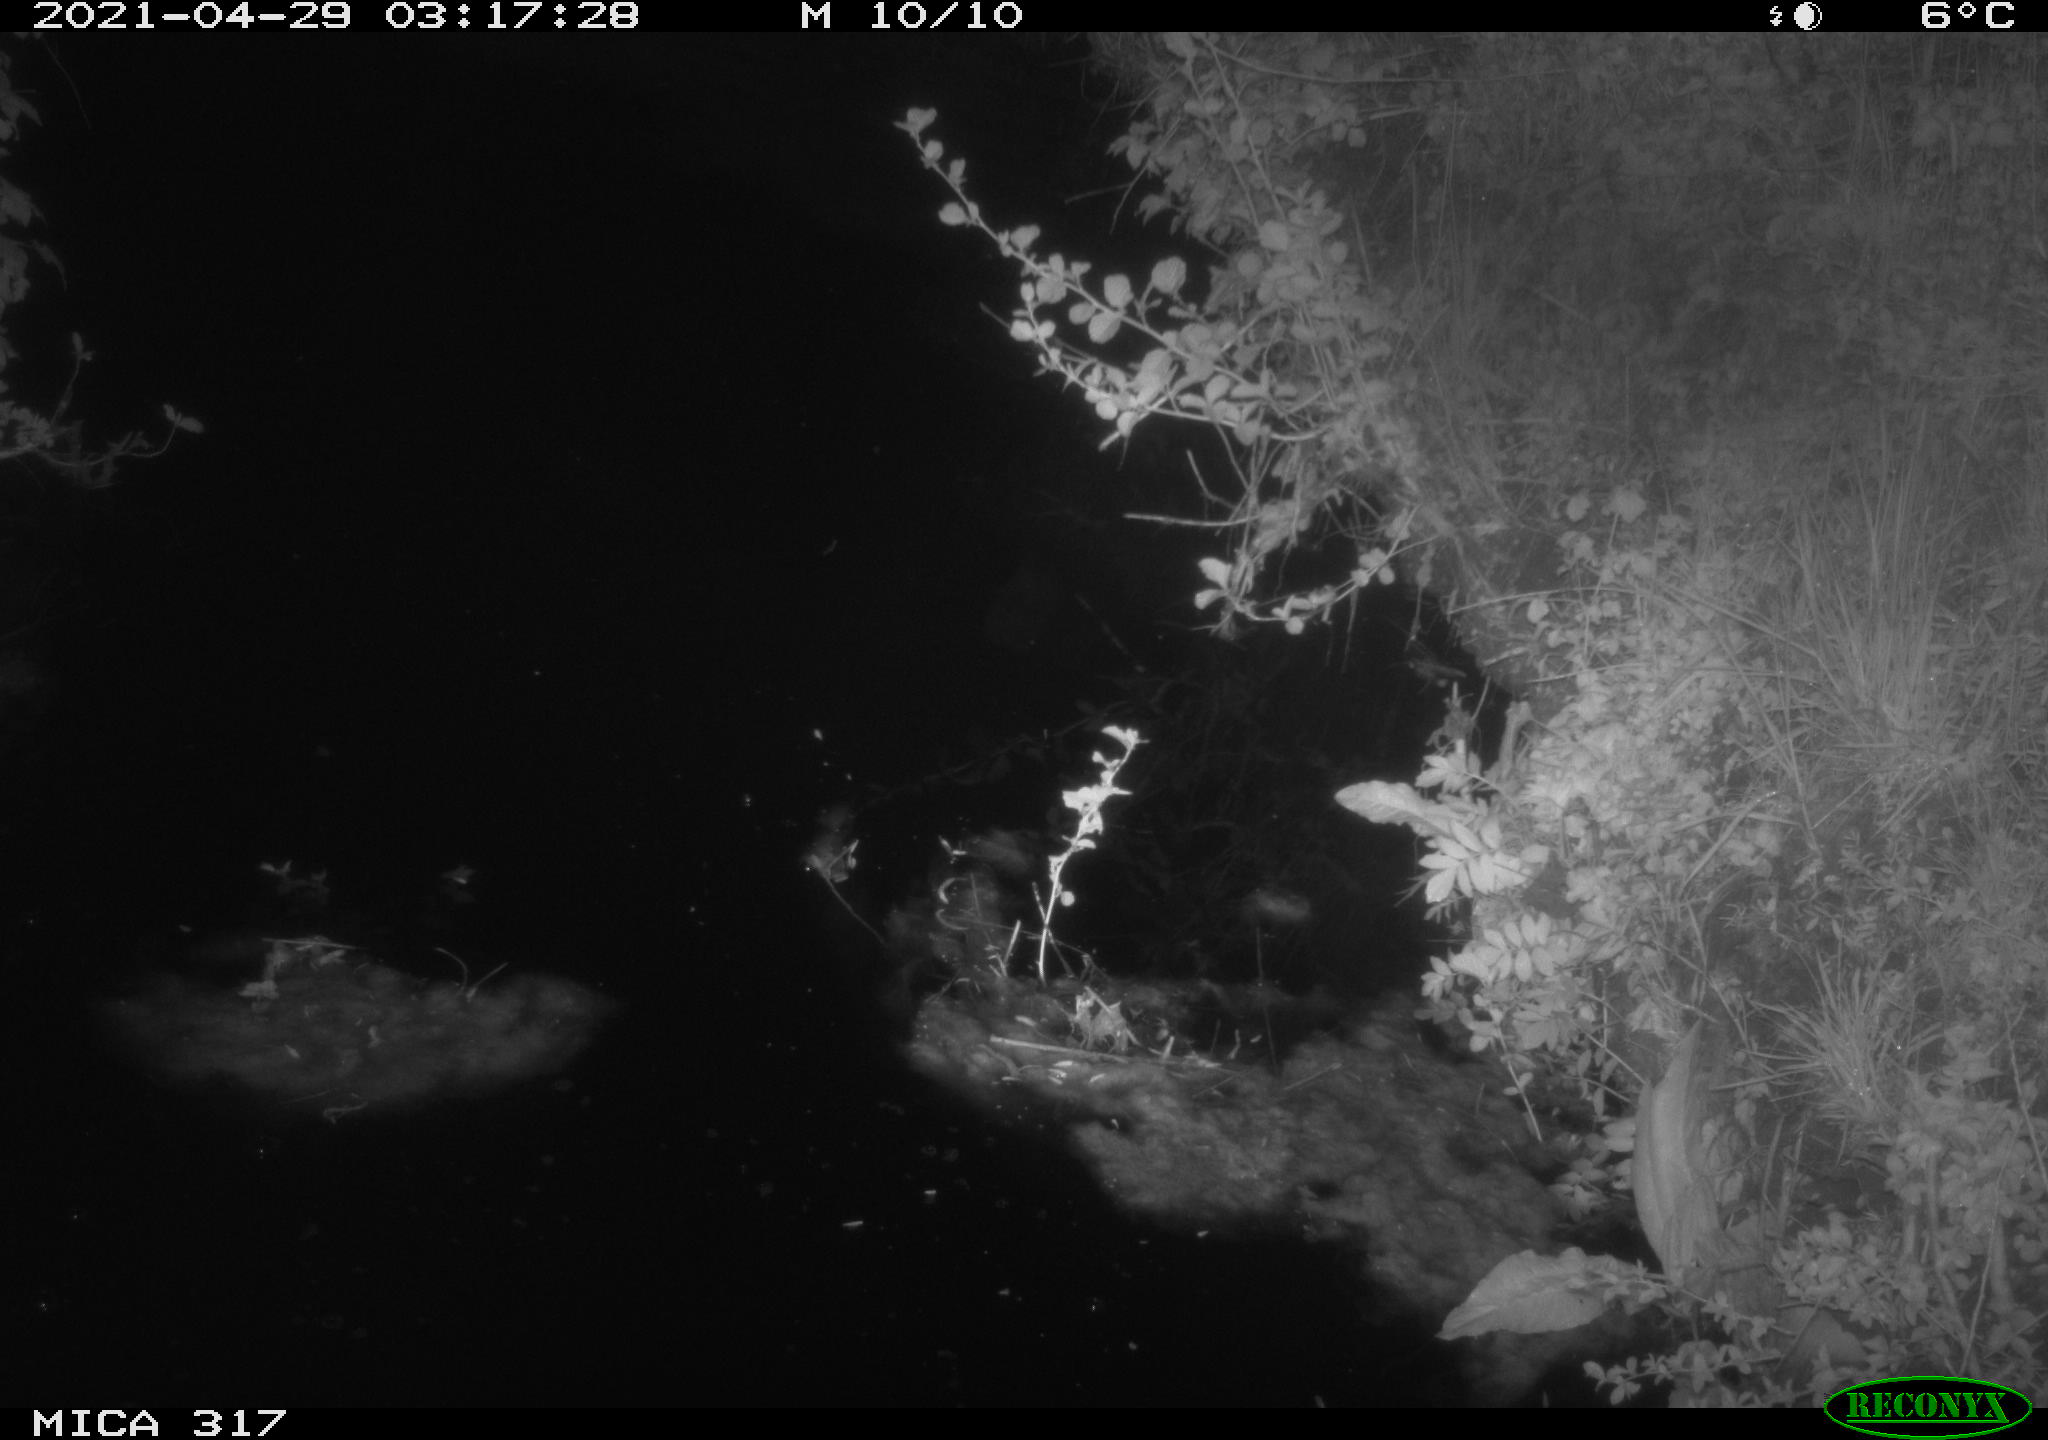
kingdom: Animalia
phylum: Chordata
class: Aves
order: Anseriformes
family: Anatidae
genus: Anas
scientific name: Anas
